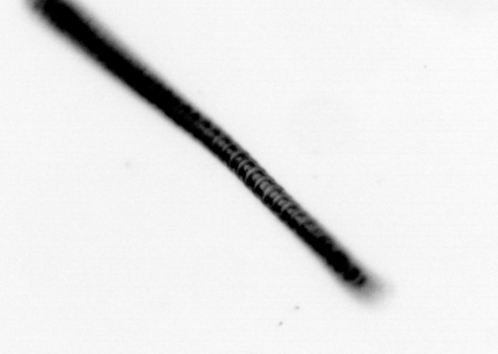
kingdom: Chromista
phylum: Ochrophyta
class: Bacillariophyceae
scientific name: Bacillariophyceae
